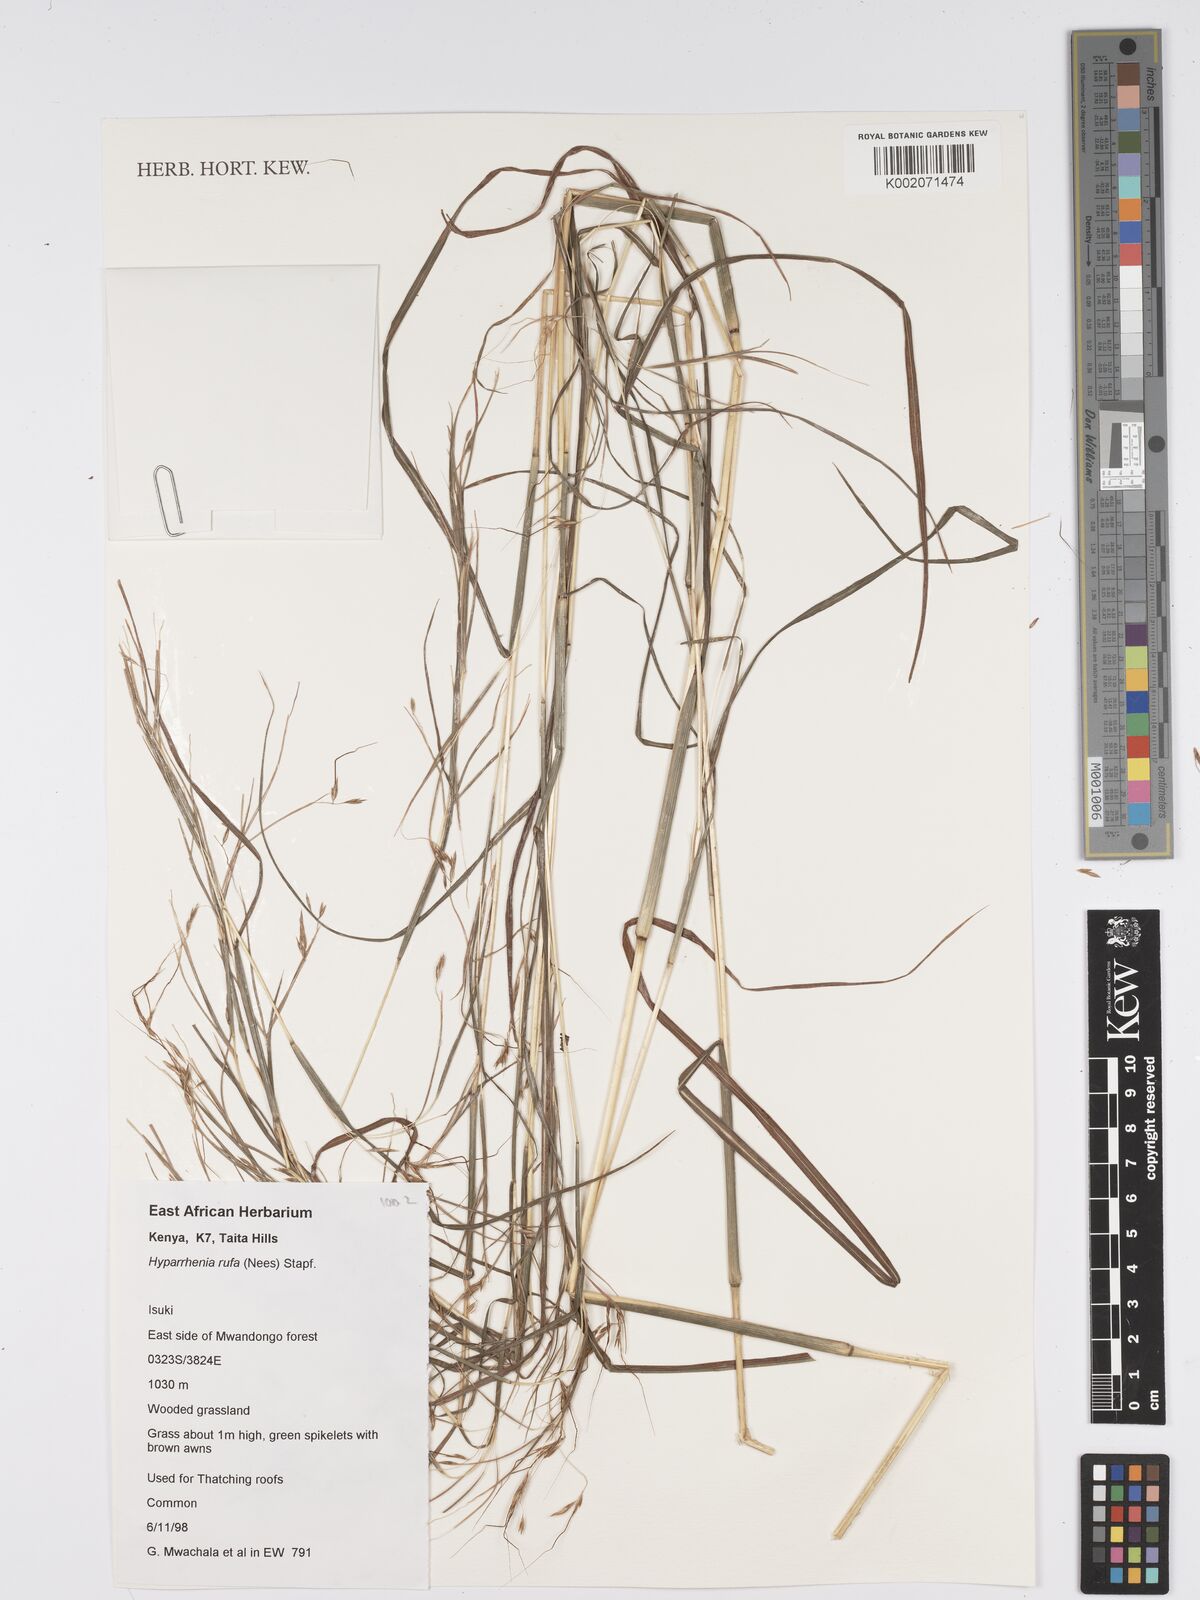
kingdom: Plantae
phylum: Tracheophyta
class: Liliopsida
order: Poales
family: Poaceae
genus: Hyparrhenia
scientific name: Hyparrhenia rufa
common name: Jaraguagrass
